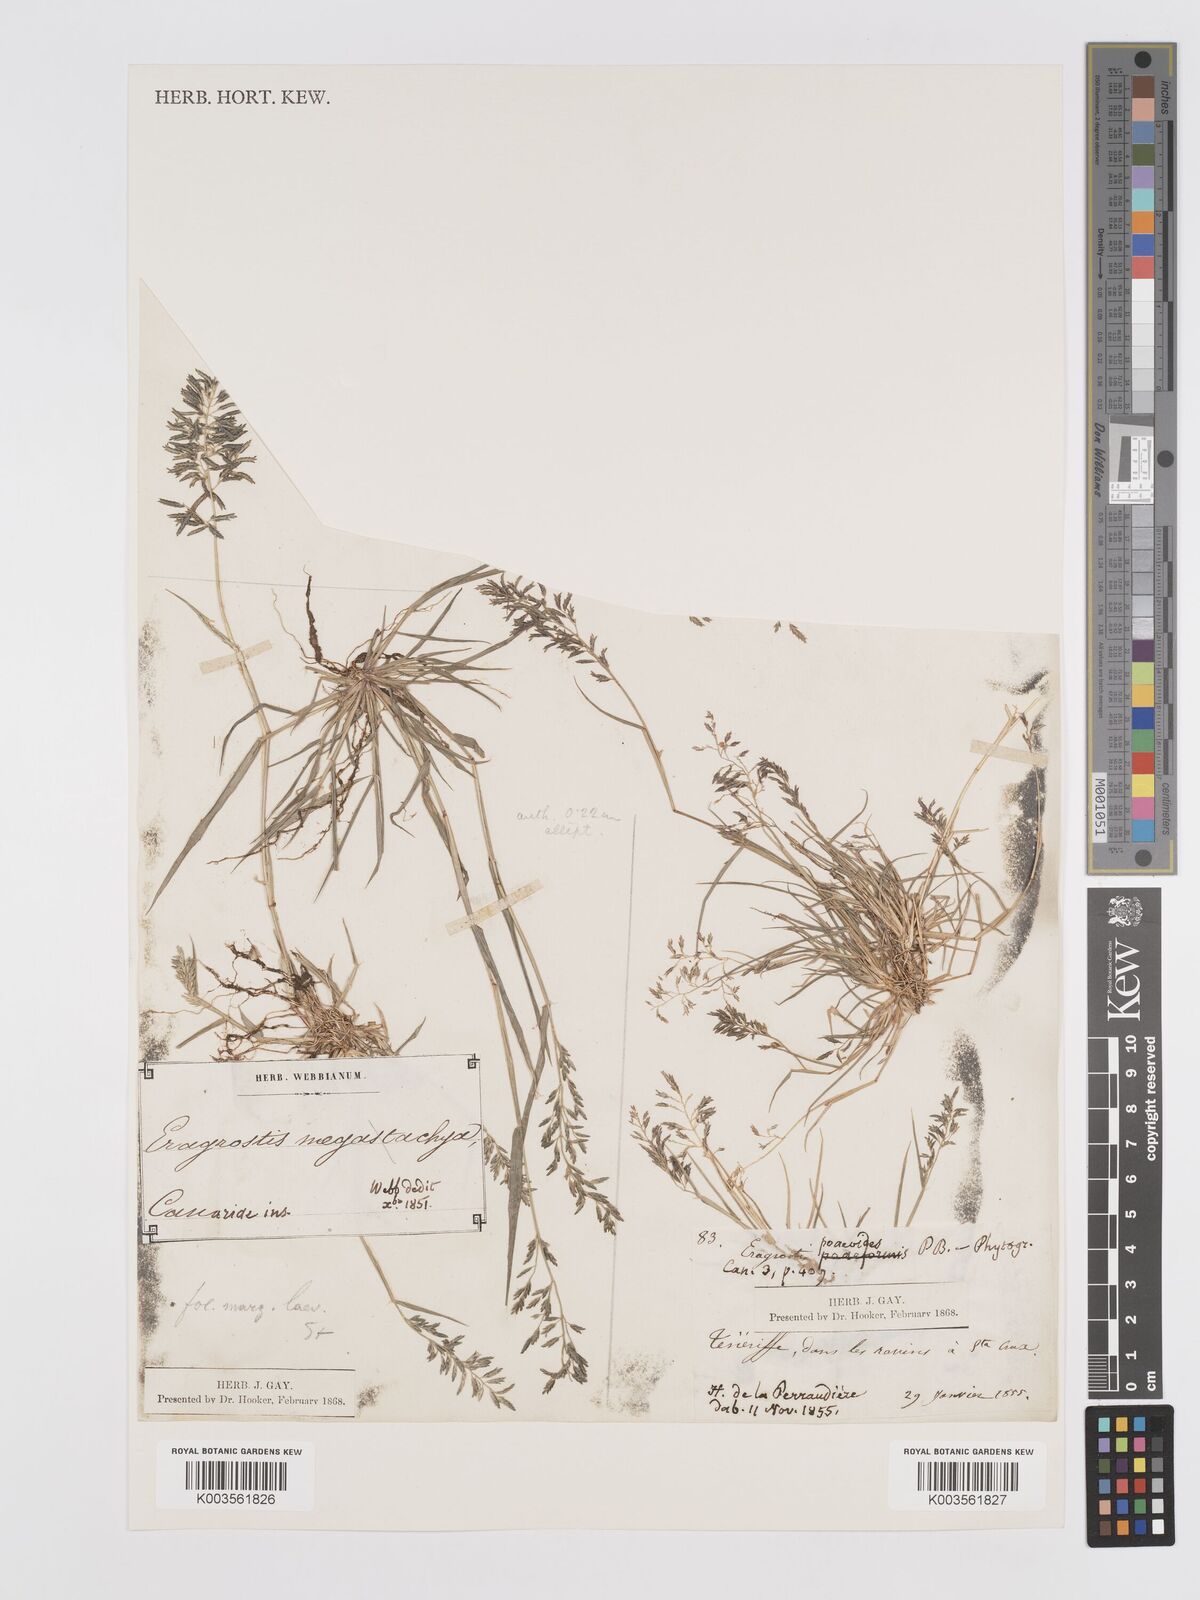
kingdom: Plantae
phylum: Tracheophyta
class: Liliopsida
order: Poales
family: Poaceae
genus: Eragrostis
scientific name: Eragrostis barrelieri
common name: Mediterranean lovegrass
